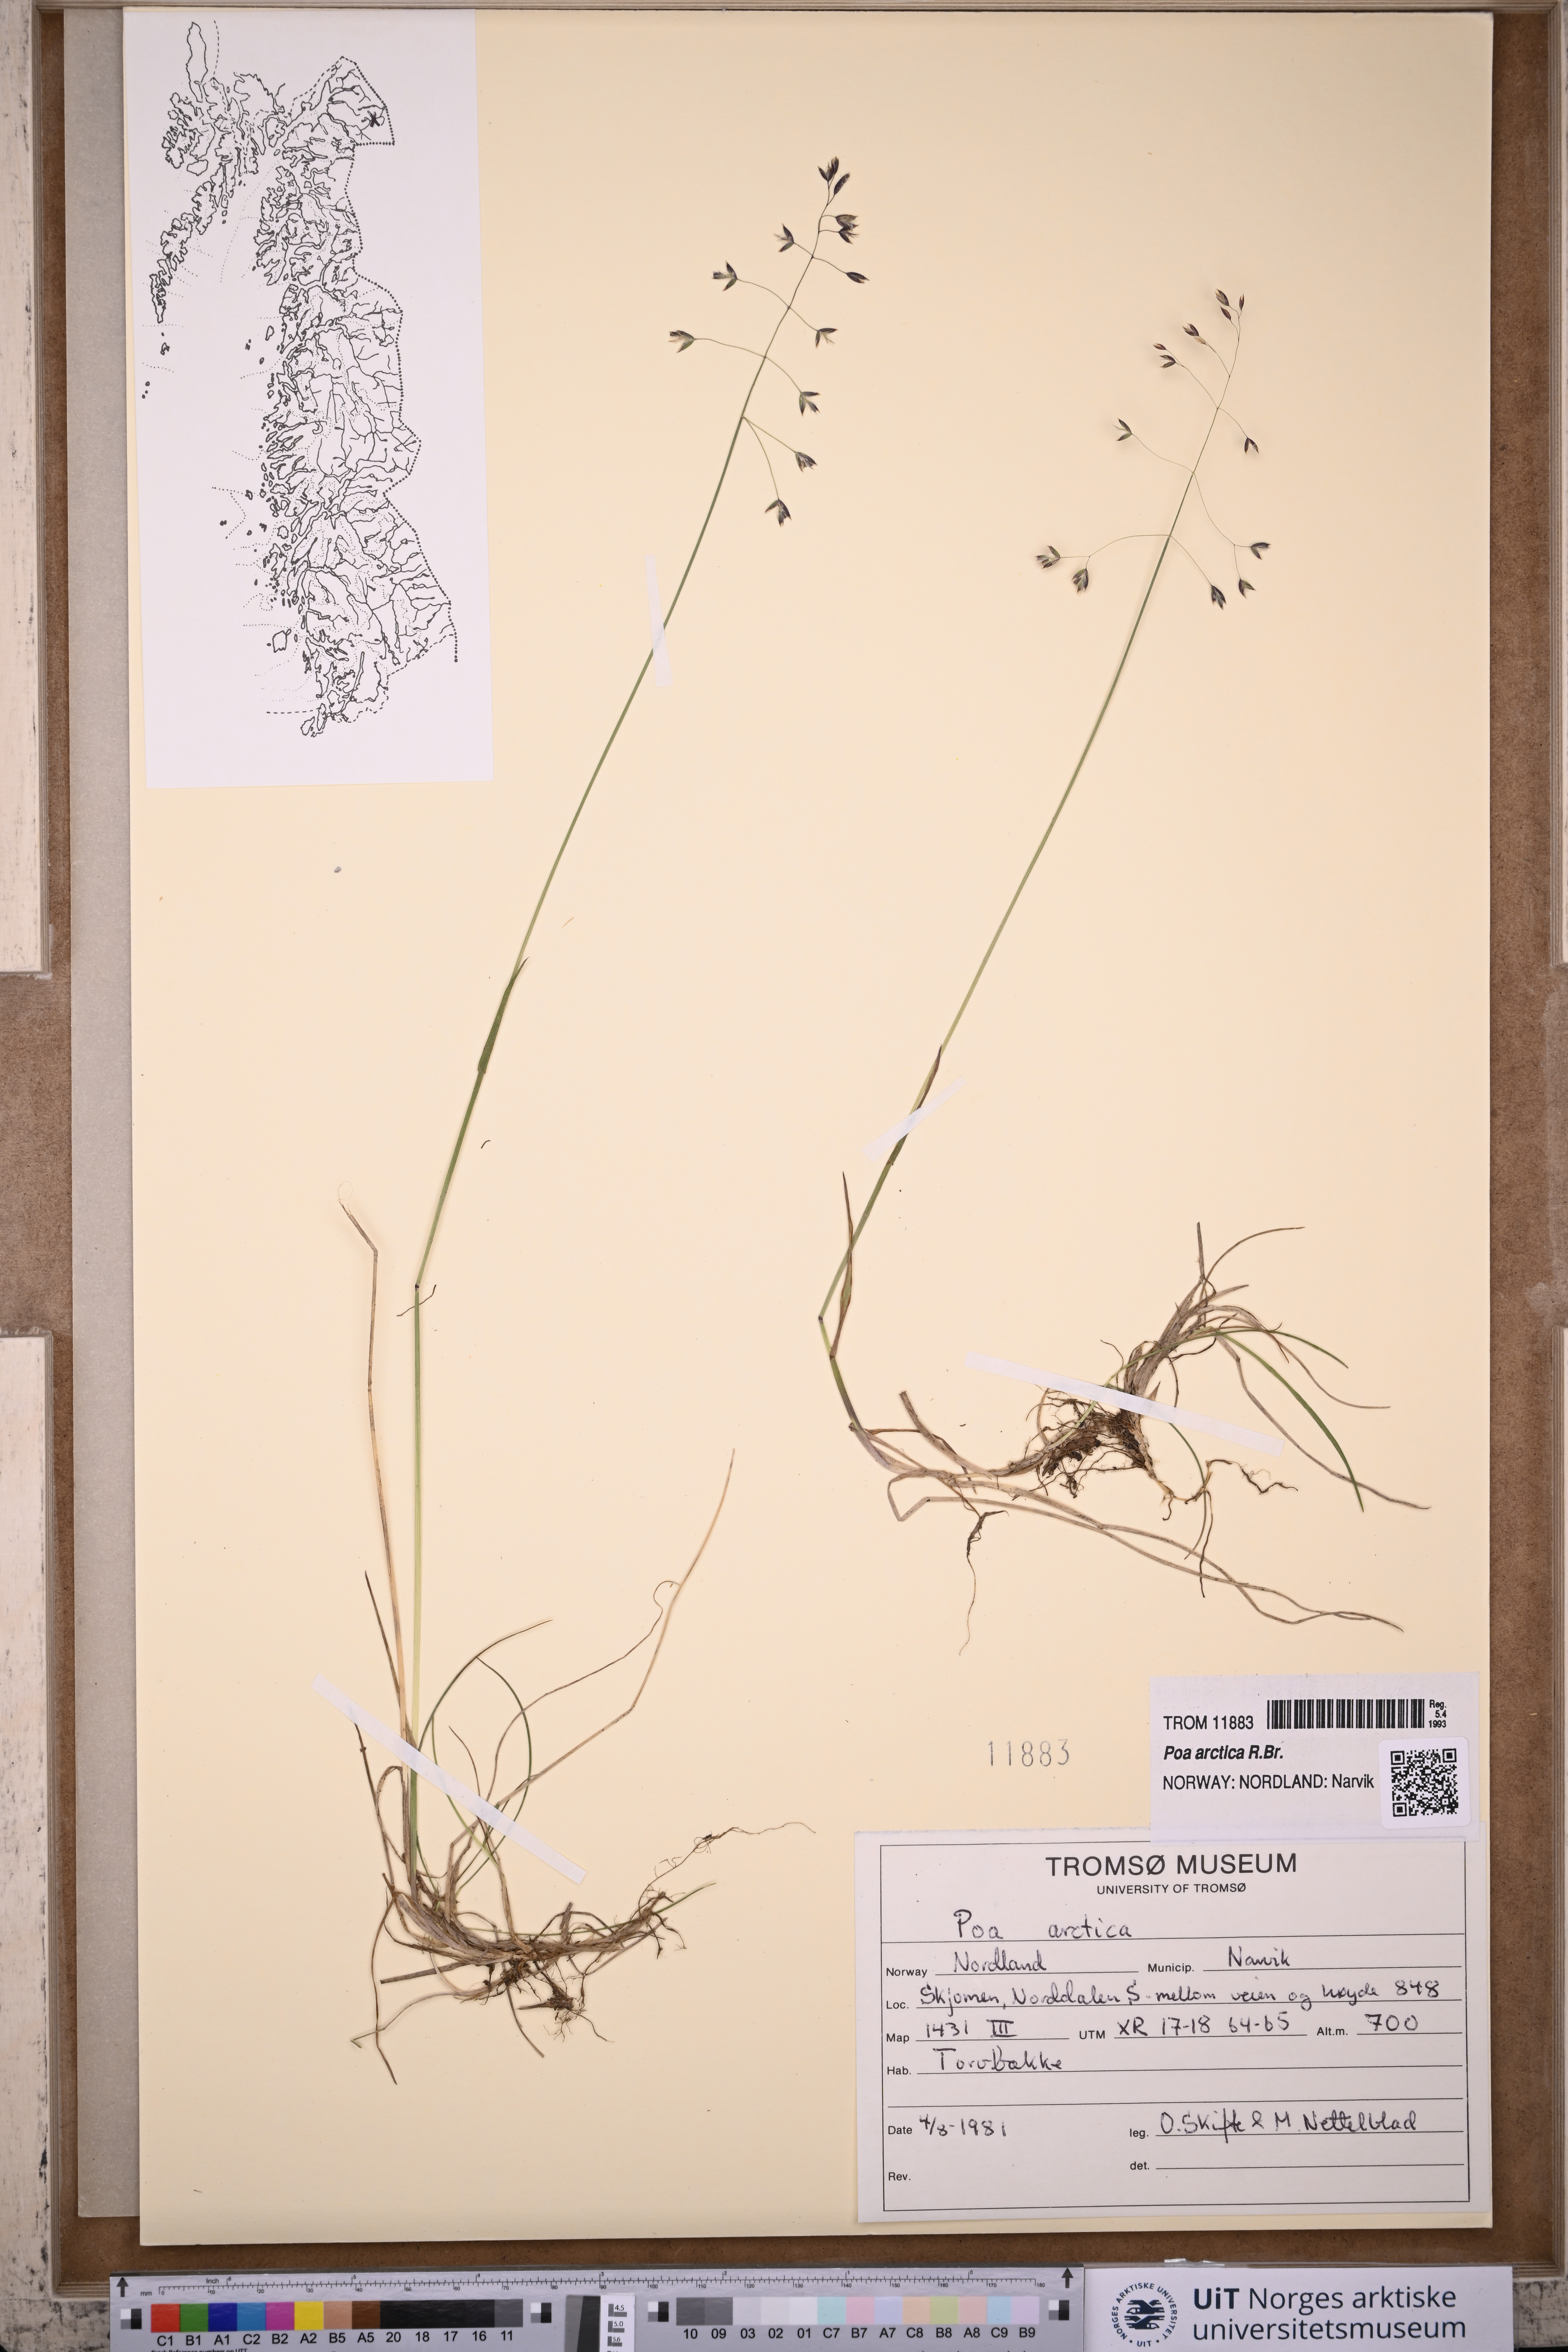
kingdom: Plantae
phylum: Tracheophyta
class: Liliopsida
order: Poales
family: Poaceae
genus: Poa
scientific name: Poa arctica
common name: Arctic bluegrass
